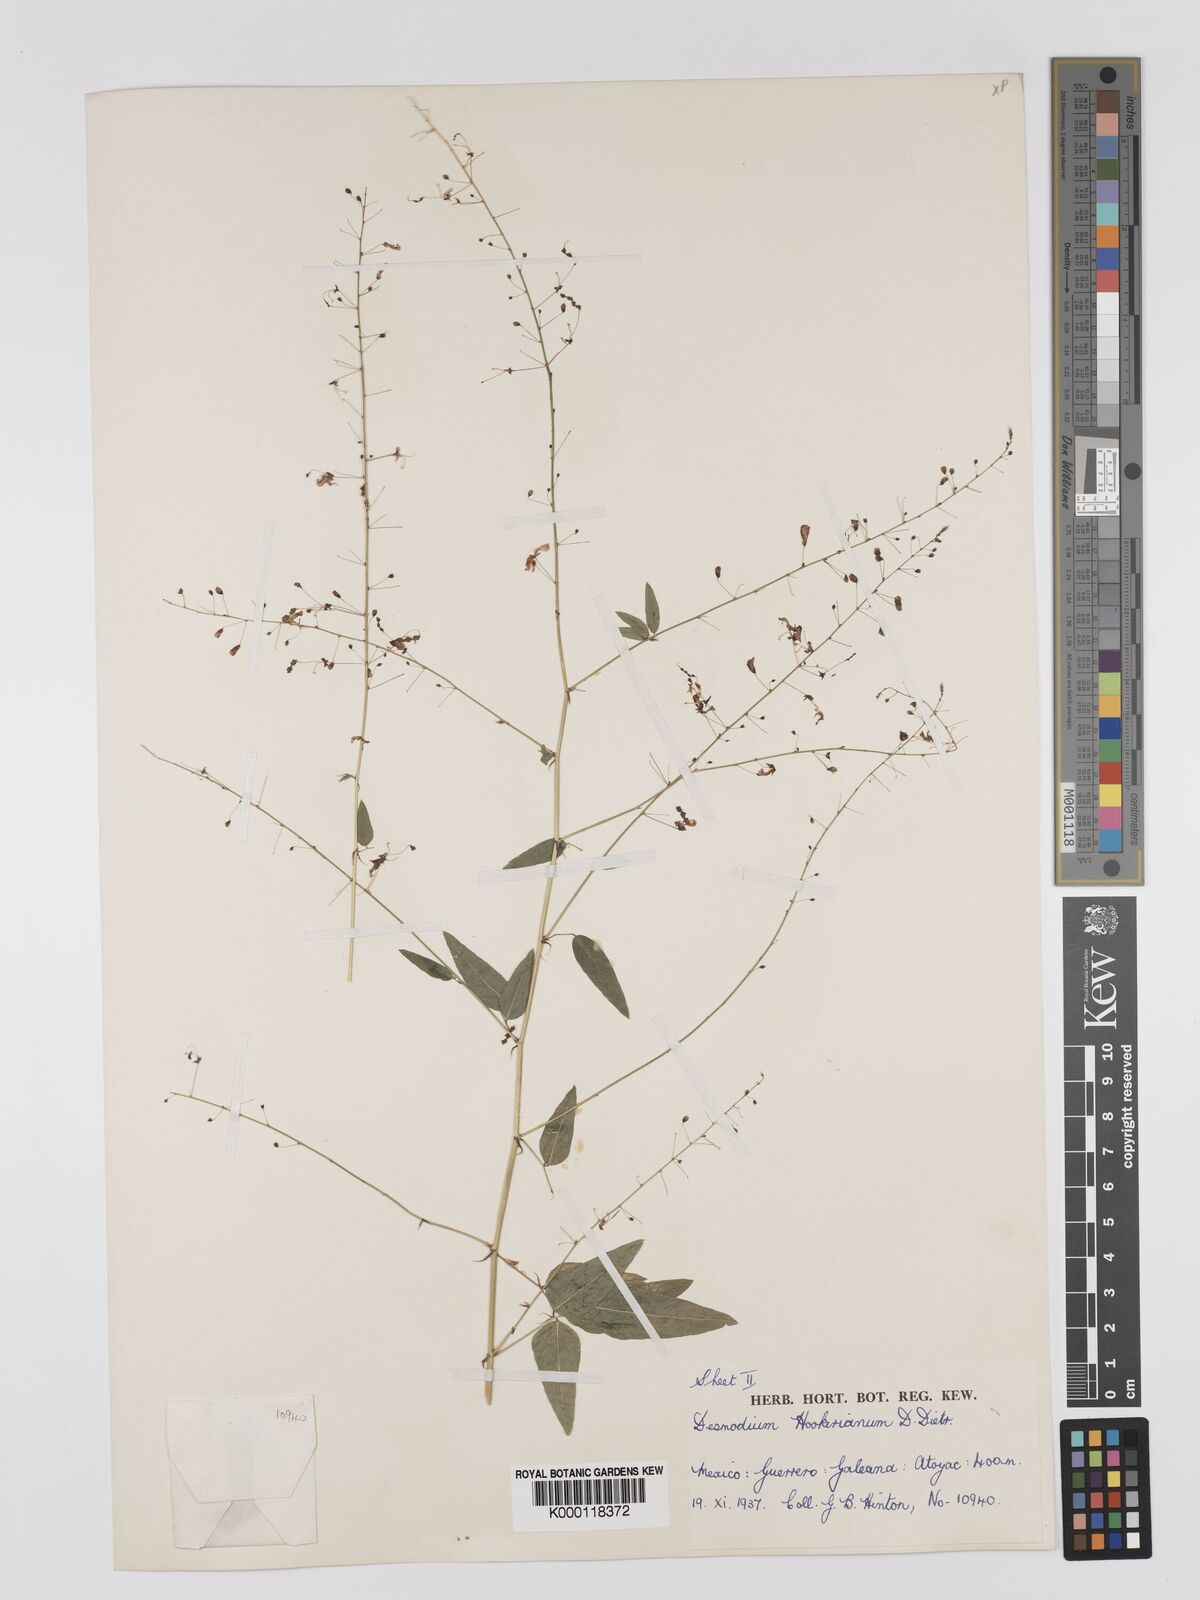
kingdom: Plantae
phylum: Tracheophyta
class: Magnoliopsida
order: Fabales
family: Fabaceae
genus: Desmodium
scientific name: Desmodium hookerianum
